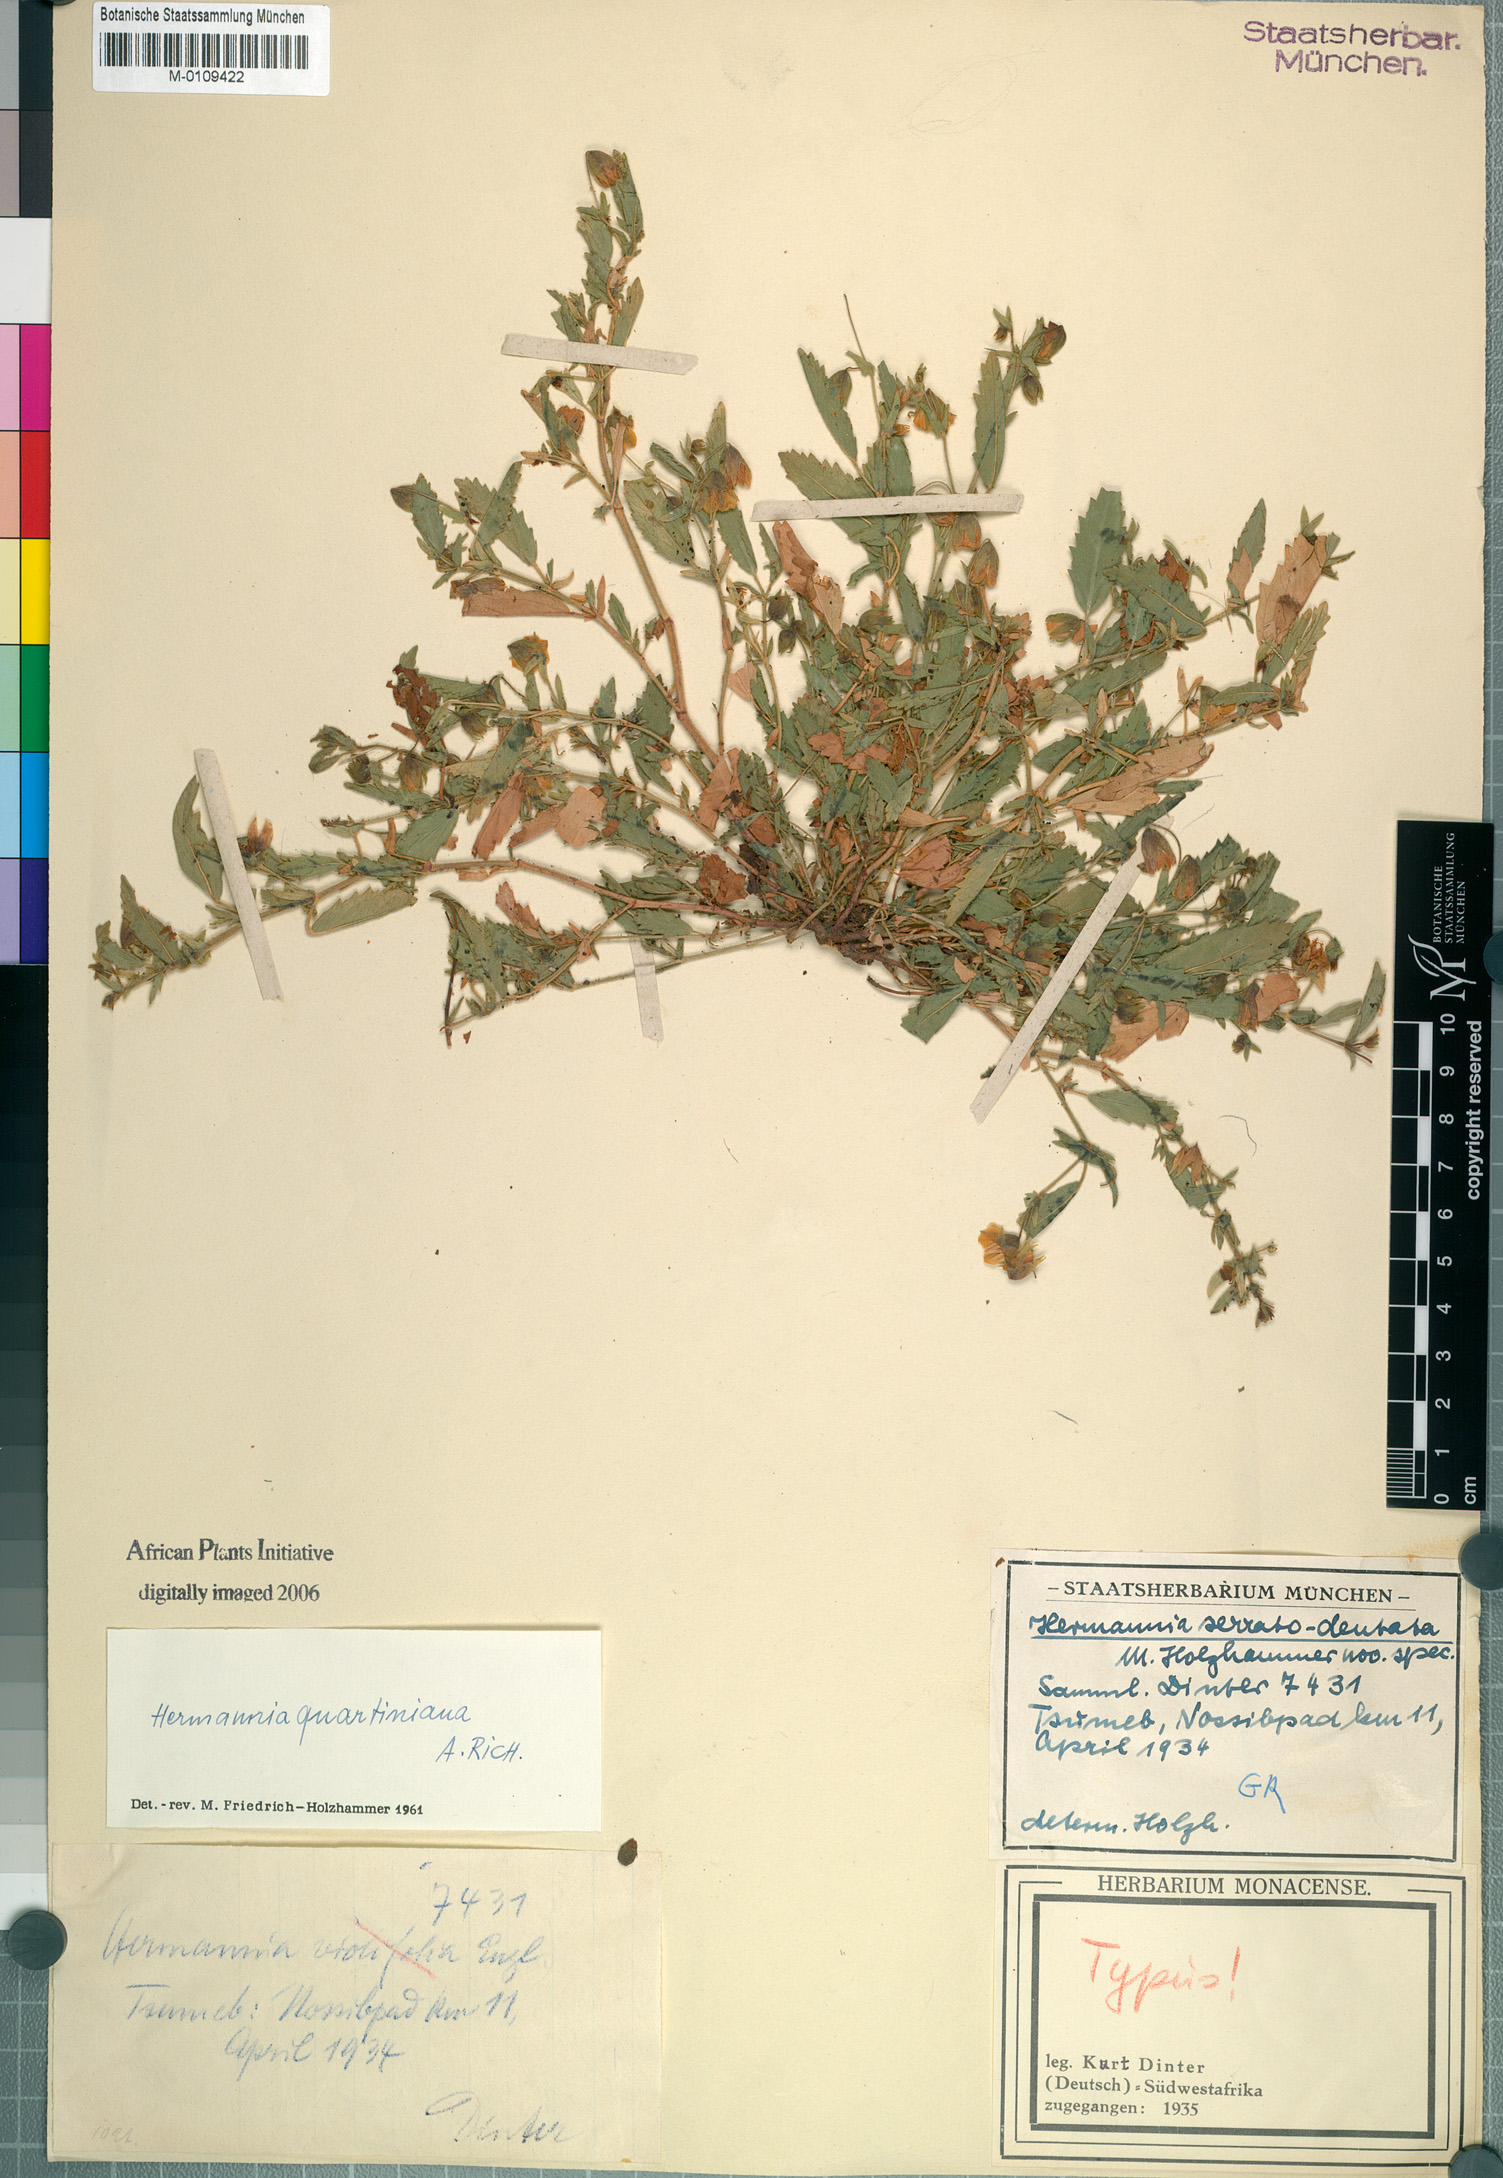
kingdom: Plantae
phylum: Tracheophyta
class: Magnoliopsida
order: Malvales
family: Malvaceae
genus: Hermannia
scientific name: Hermannia quartiniana
